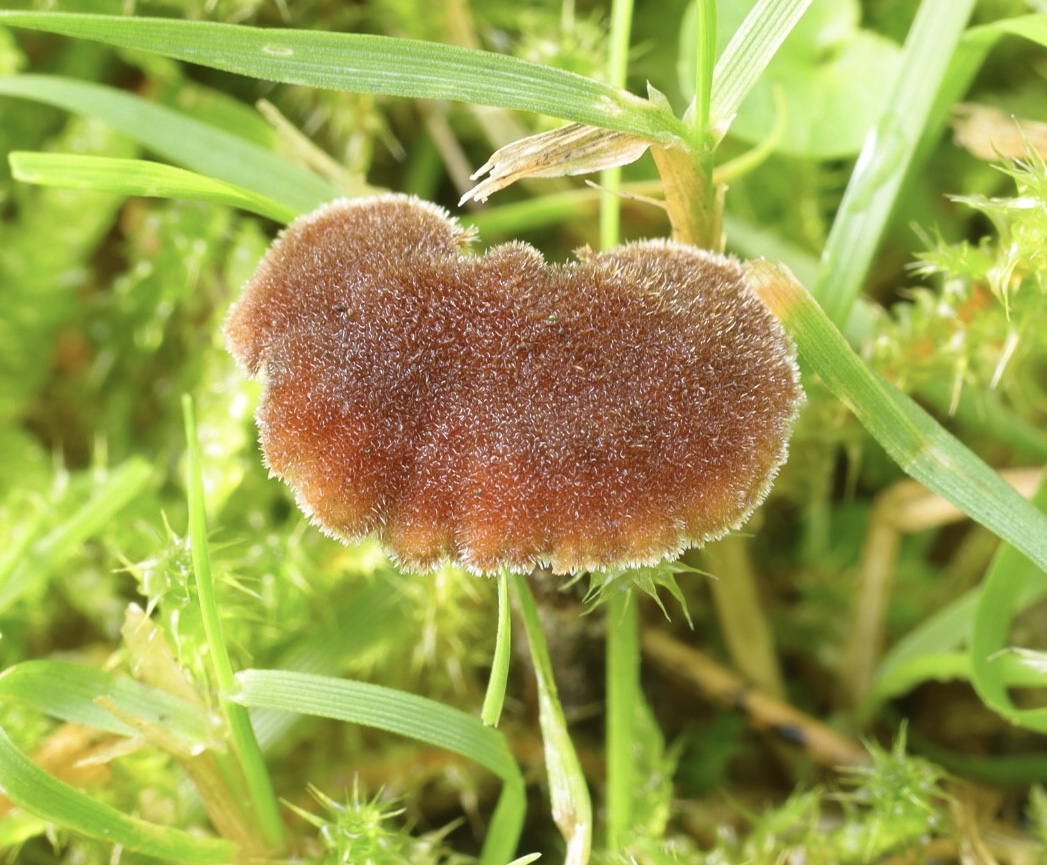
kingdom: Fungi
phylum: Basidiomycota
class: Agaricomycetes
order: Russulales
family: Auriscalpiaceae
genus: Auriscalpium
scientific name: Auriscalpium vulgare
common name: koglepigsvamp
